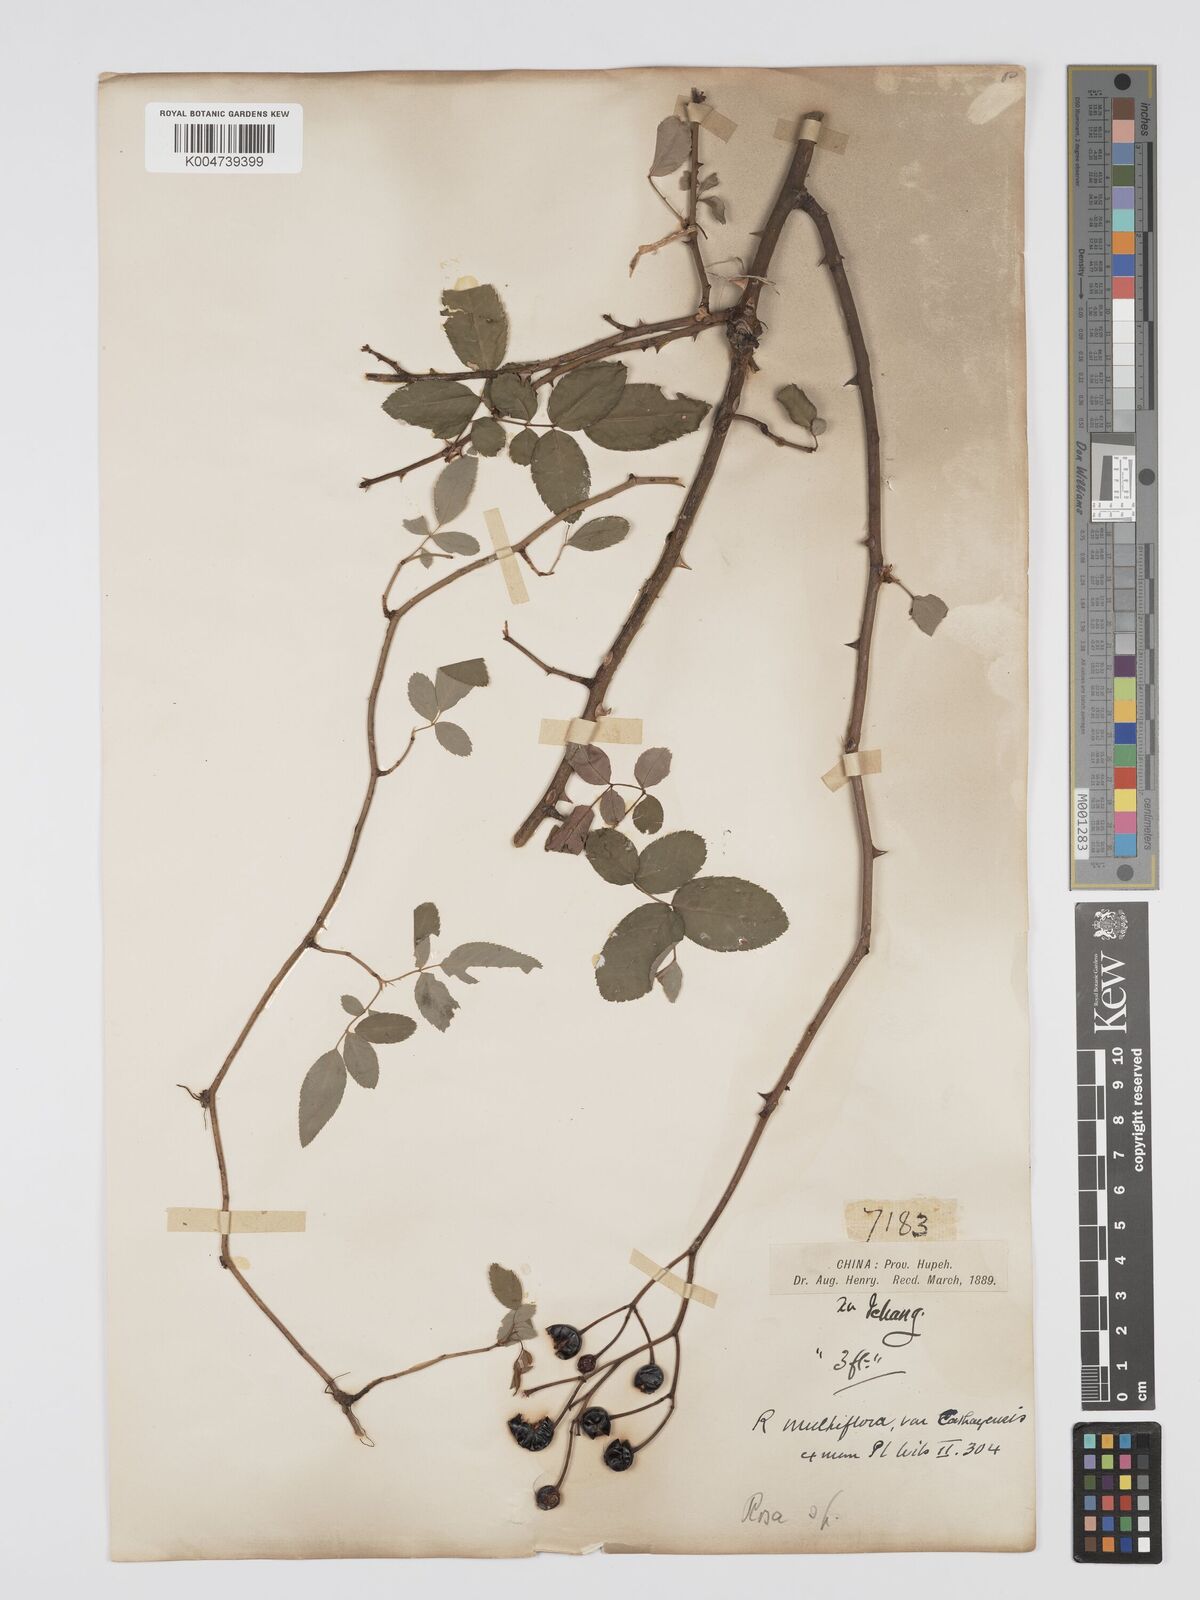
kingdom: Plantae
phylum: Tracheophyta
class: Magnoliopsida
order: Rosales
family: Rosaceae
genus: Rosa
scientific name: Rosa
